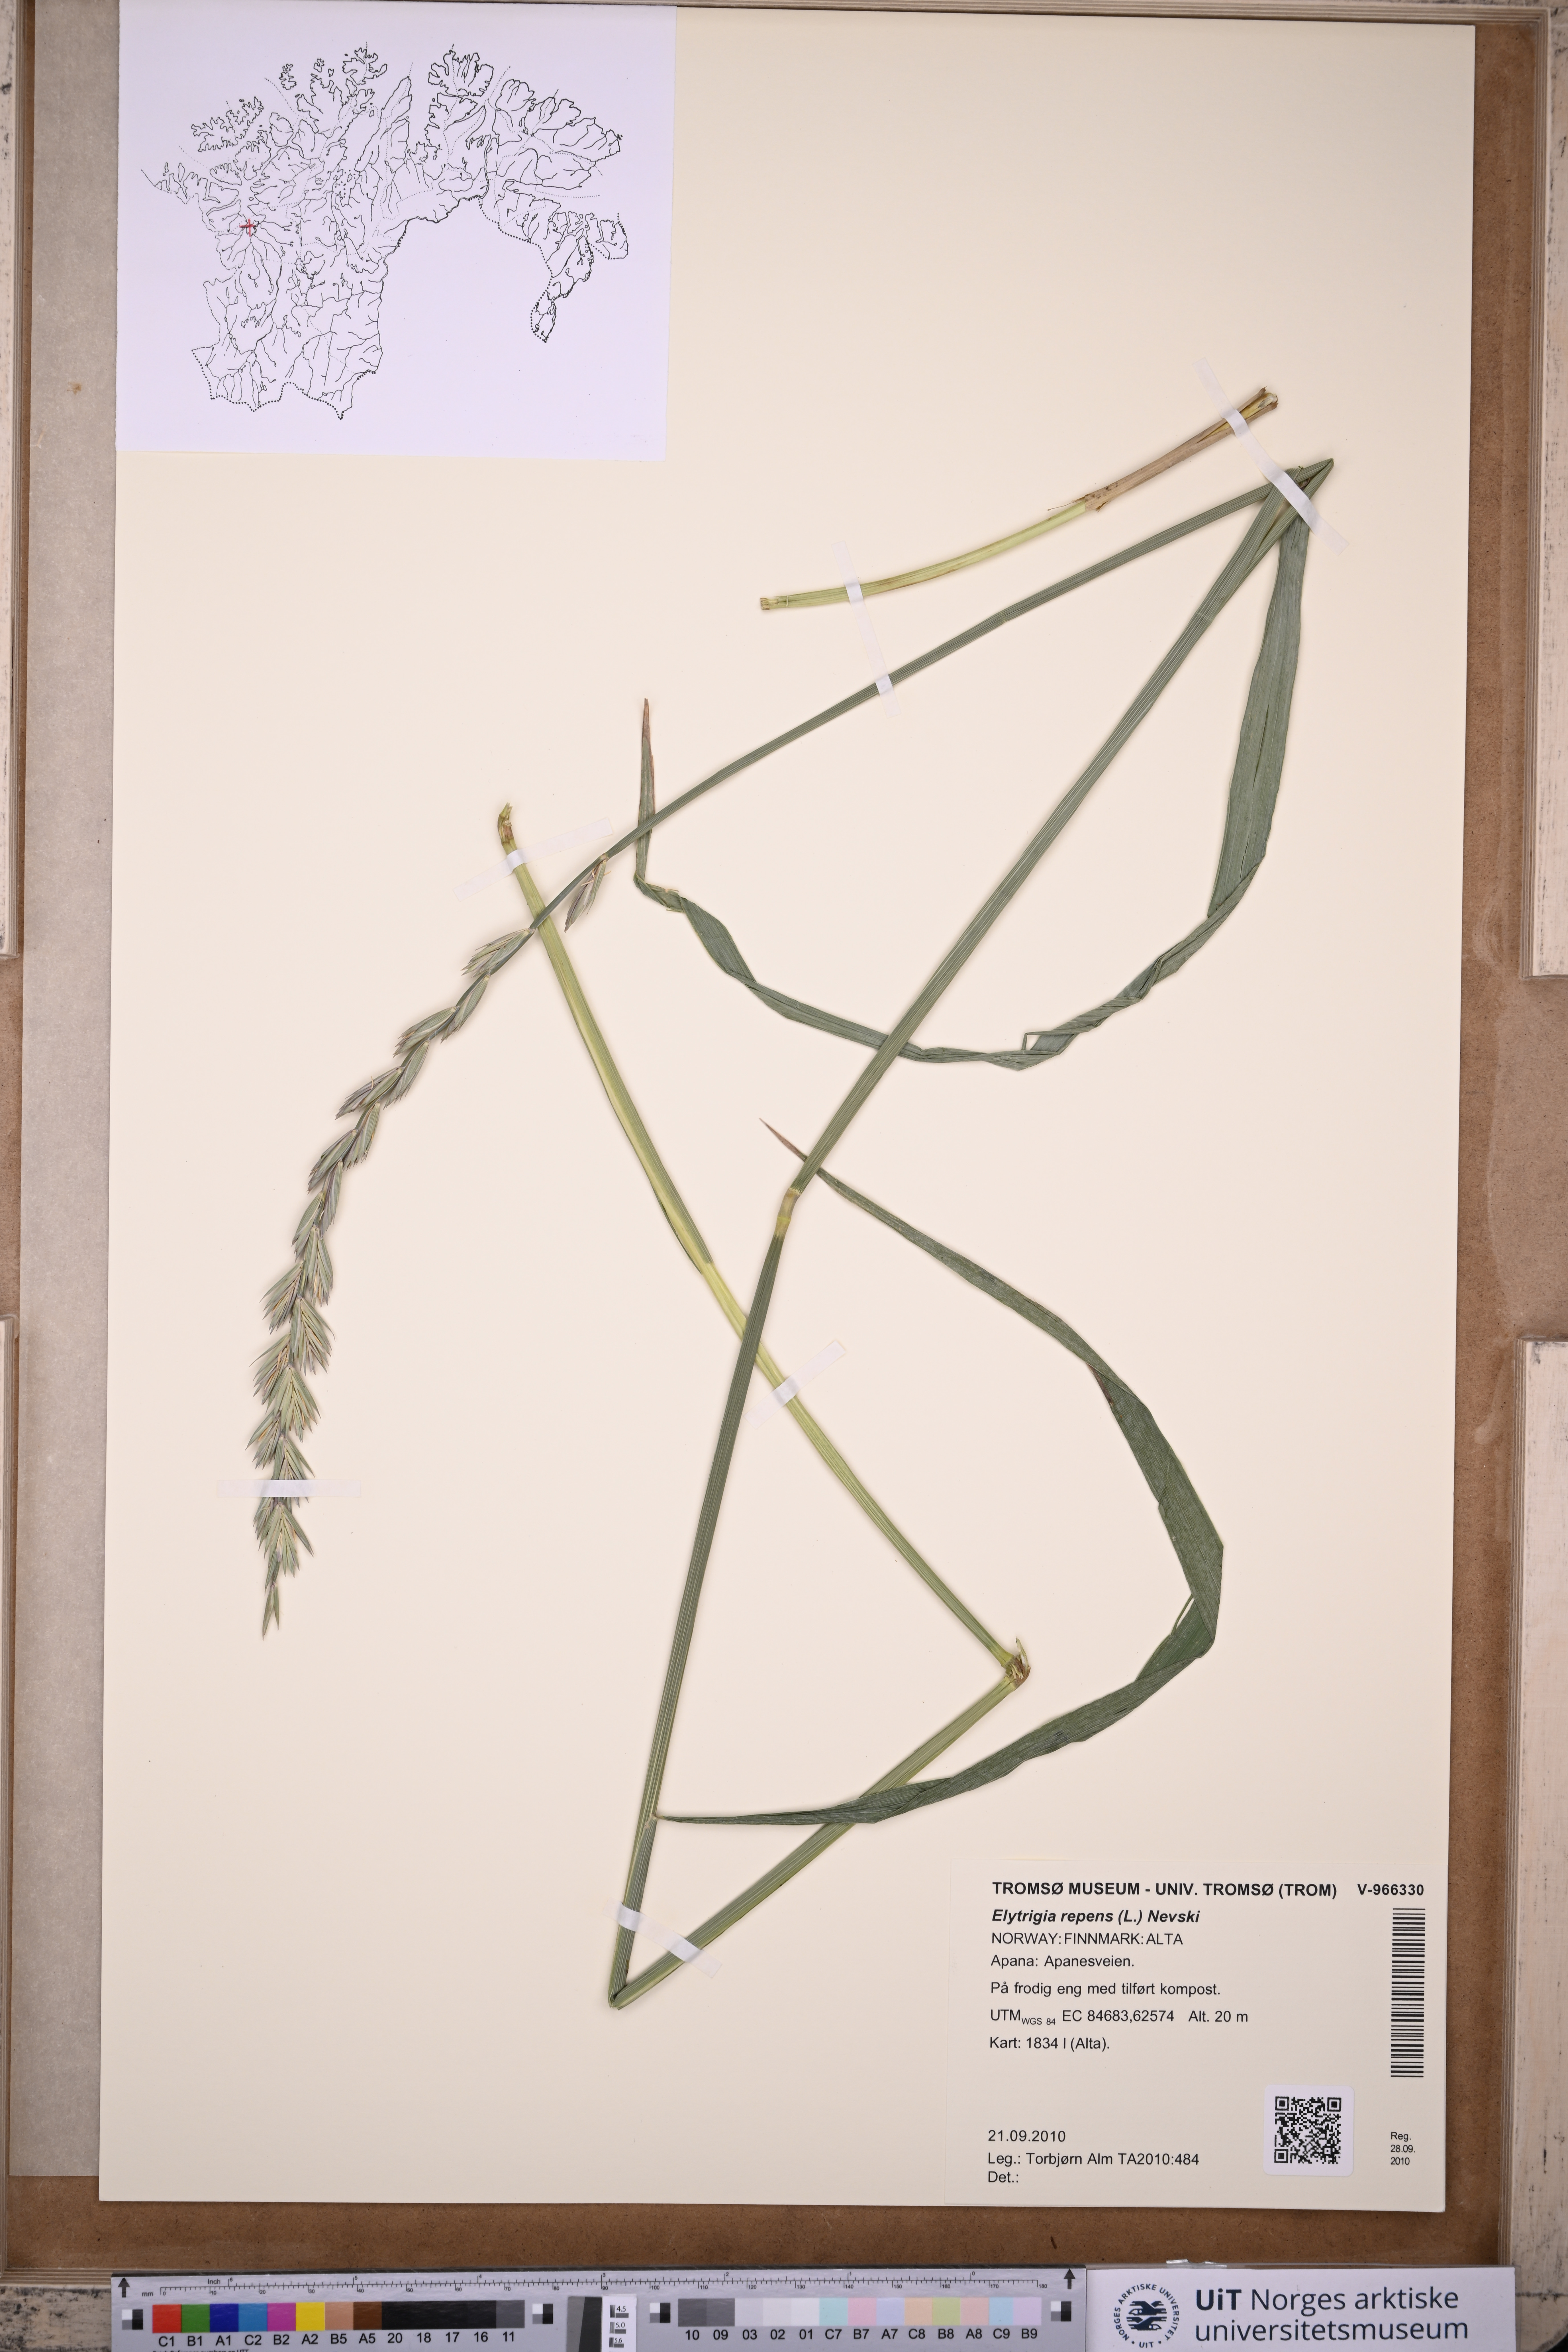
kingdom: Plantae
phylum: Tracheophyta
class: Liliopsida
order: Poales
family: Poaceae
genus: Elymus
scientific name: Elymus repens
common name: Quackgrass
